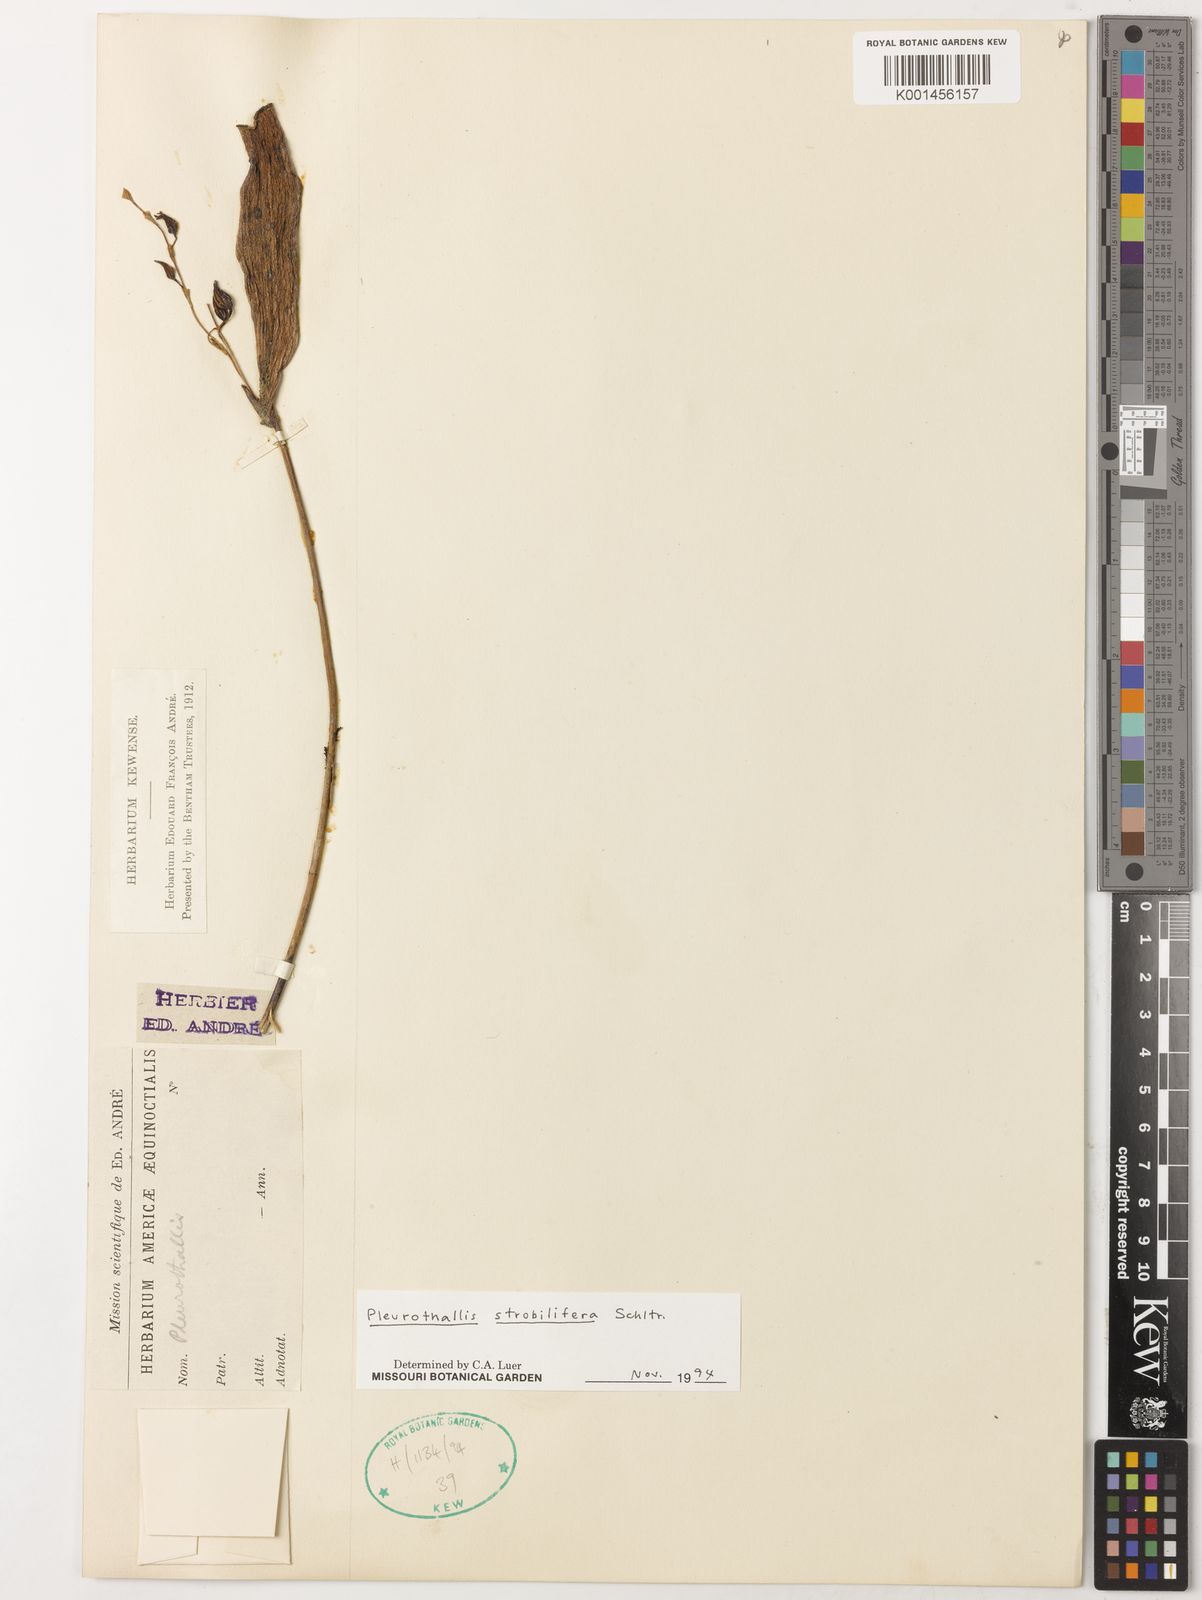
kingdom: Plantae
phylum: Tracheophyta
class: Liliopsida
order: Asparagales
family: Orchidaceae
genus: Pleurothallis
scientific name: Pleurothallis strobilifera
